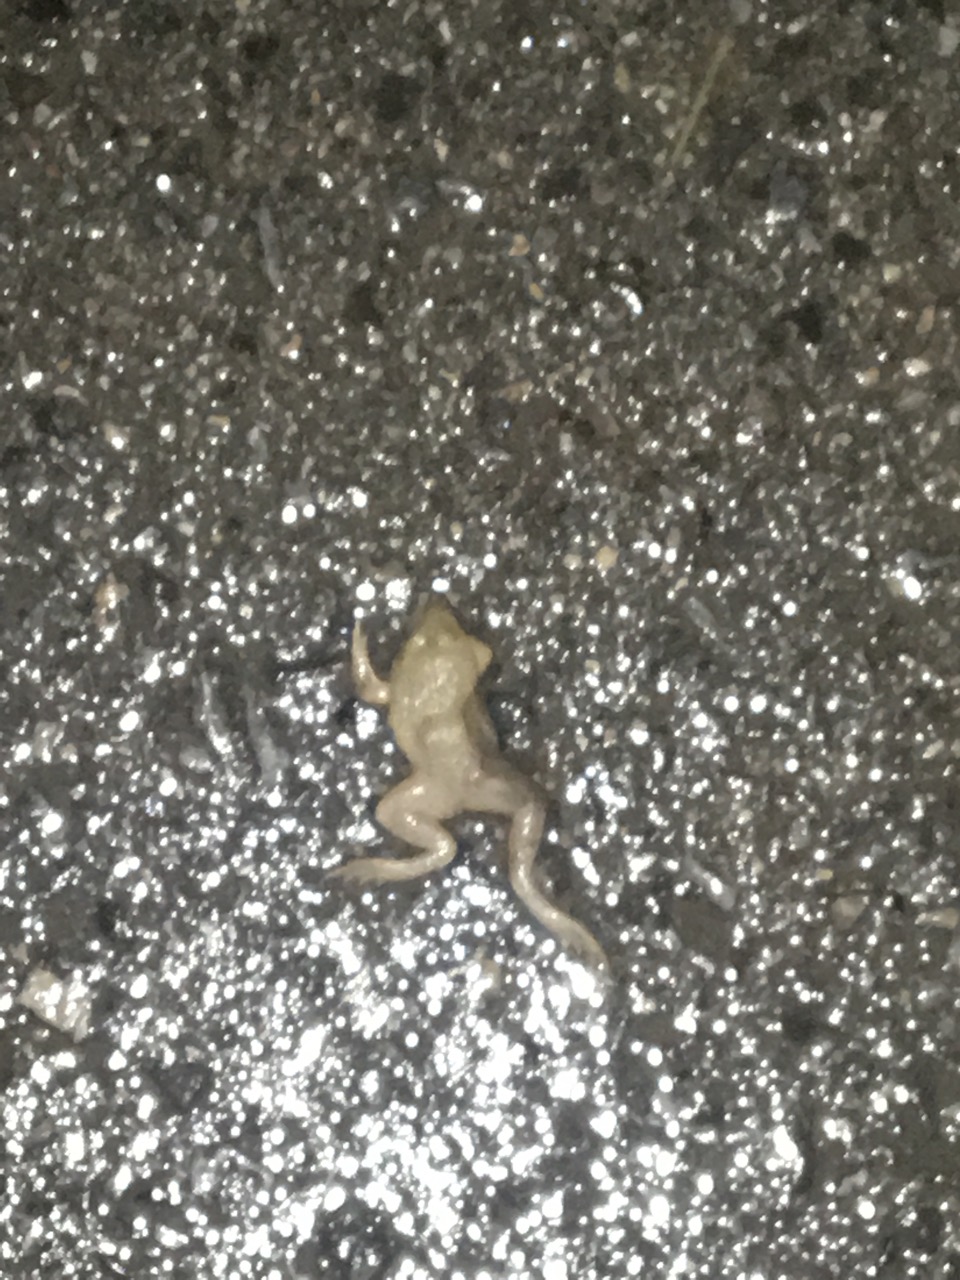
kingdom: Animalia
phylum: Chordata
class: Amphibia
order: Anura
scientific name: Anura
